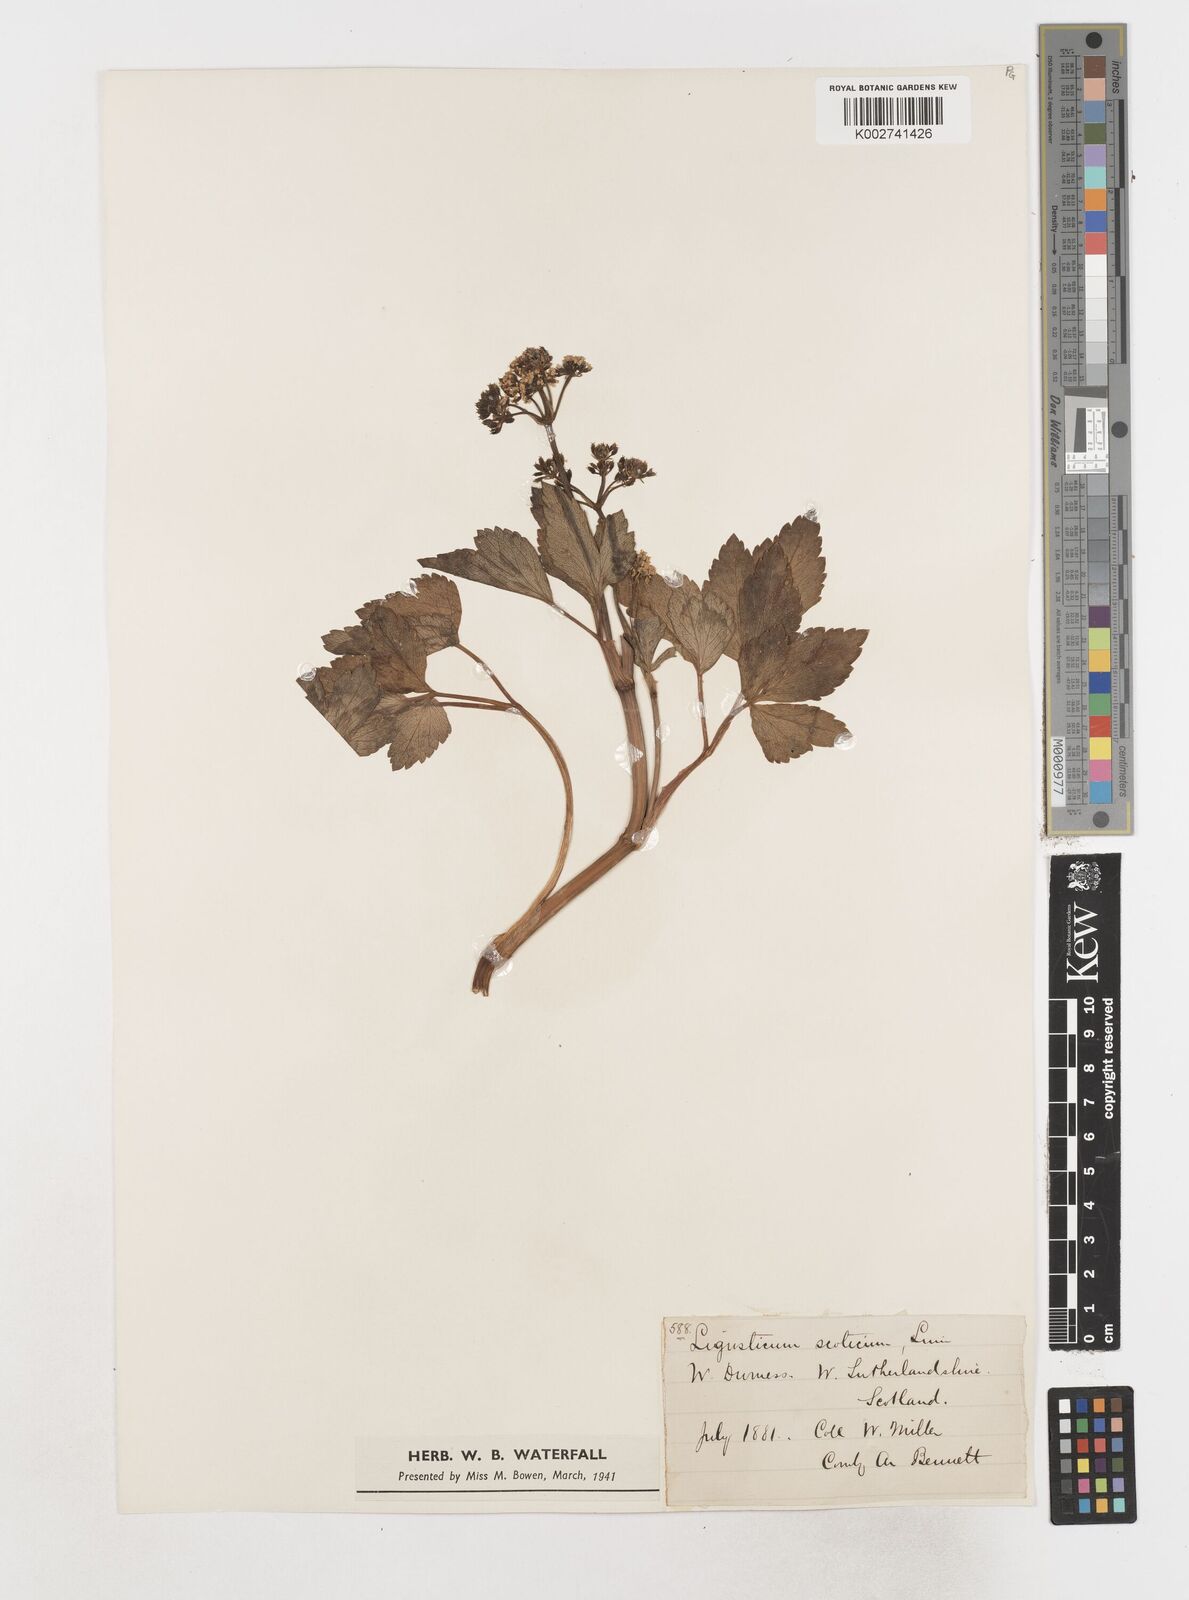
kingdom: Plantae
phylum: Tracheophyta
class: Magnoliopsida
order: Apiales
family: Apiaceae
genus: Ligusticum
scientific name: Ligusticum scothicum
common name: Beach lovage
